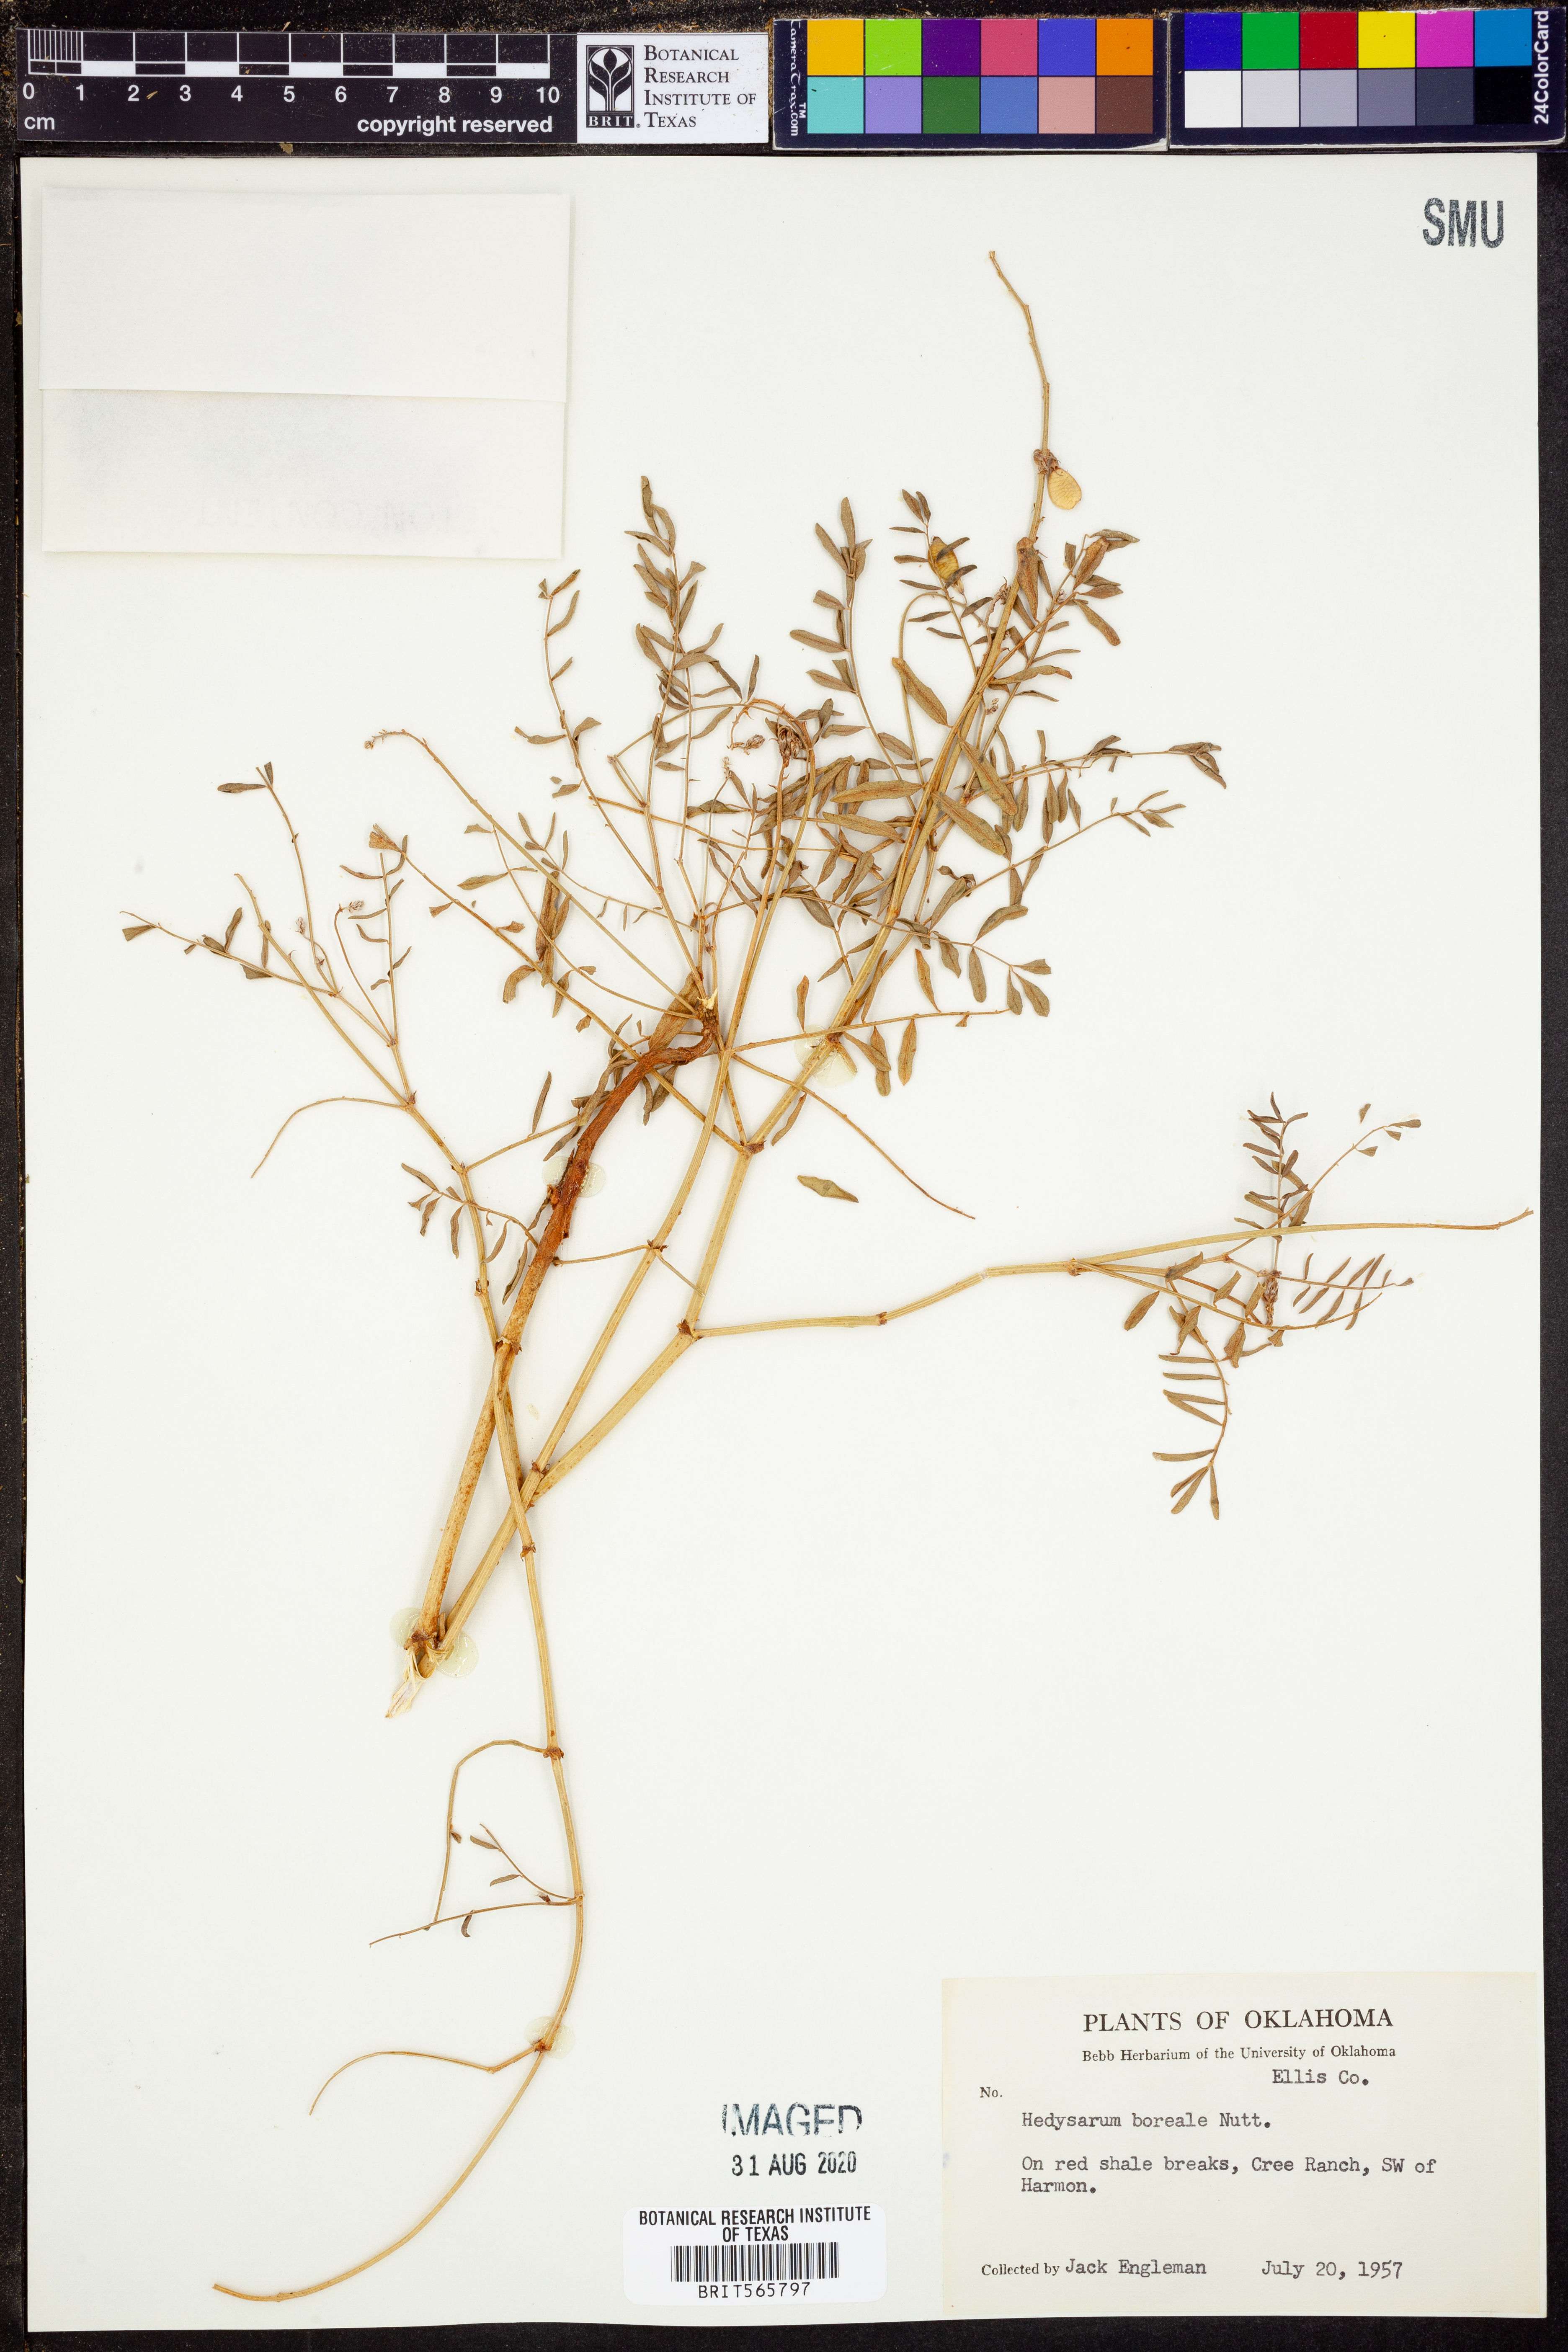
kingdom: Plantae
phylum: Tracheophyta
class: Magnoliopsida
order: Fabales
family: Fabaceae
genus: Hedysarum
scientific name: Hedysarum boreale
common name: Northern sweet-vetch
